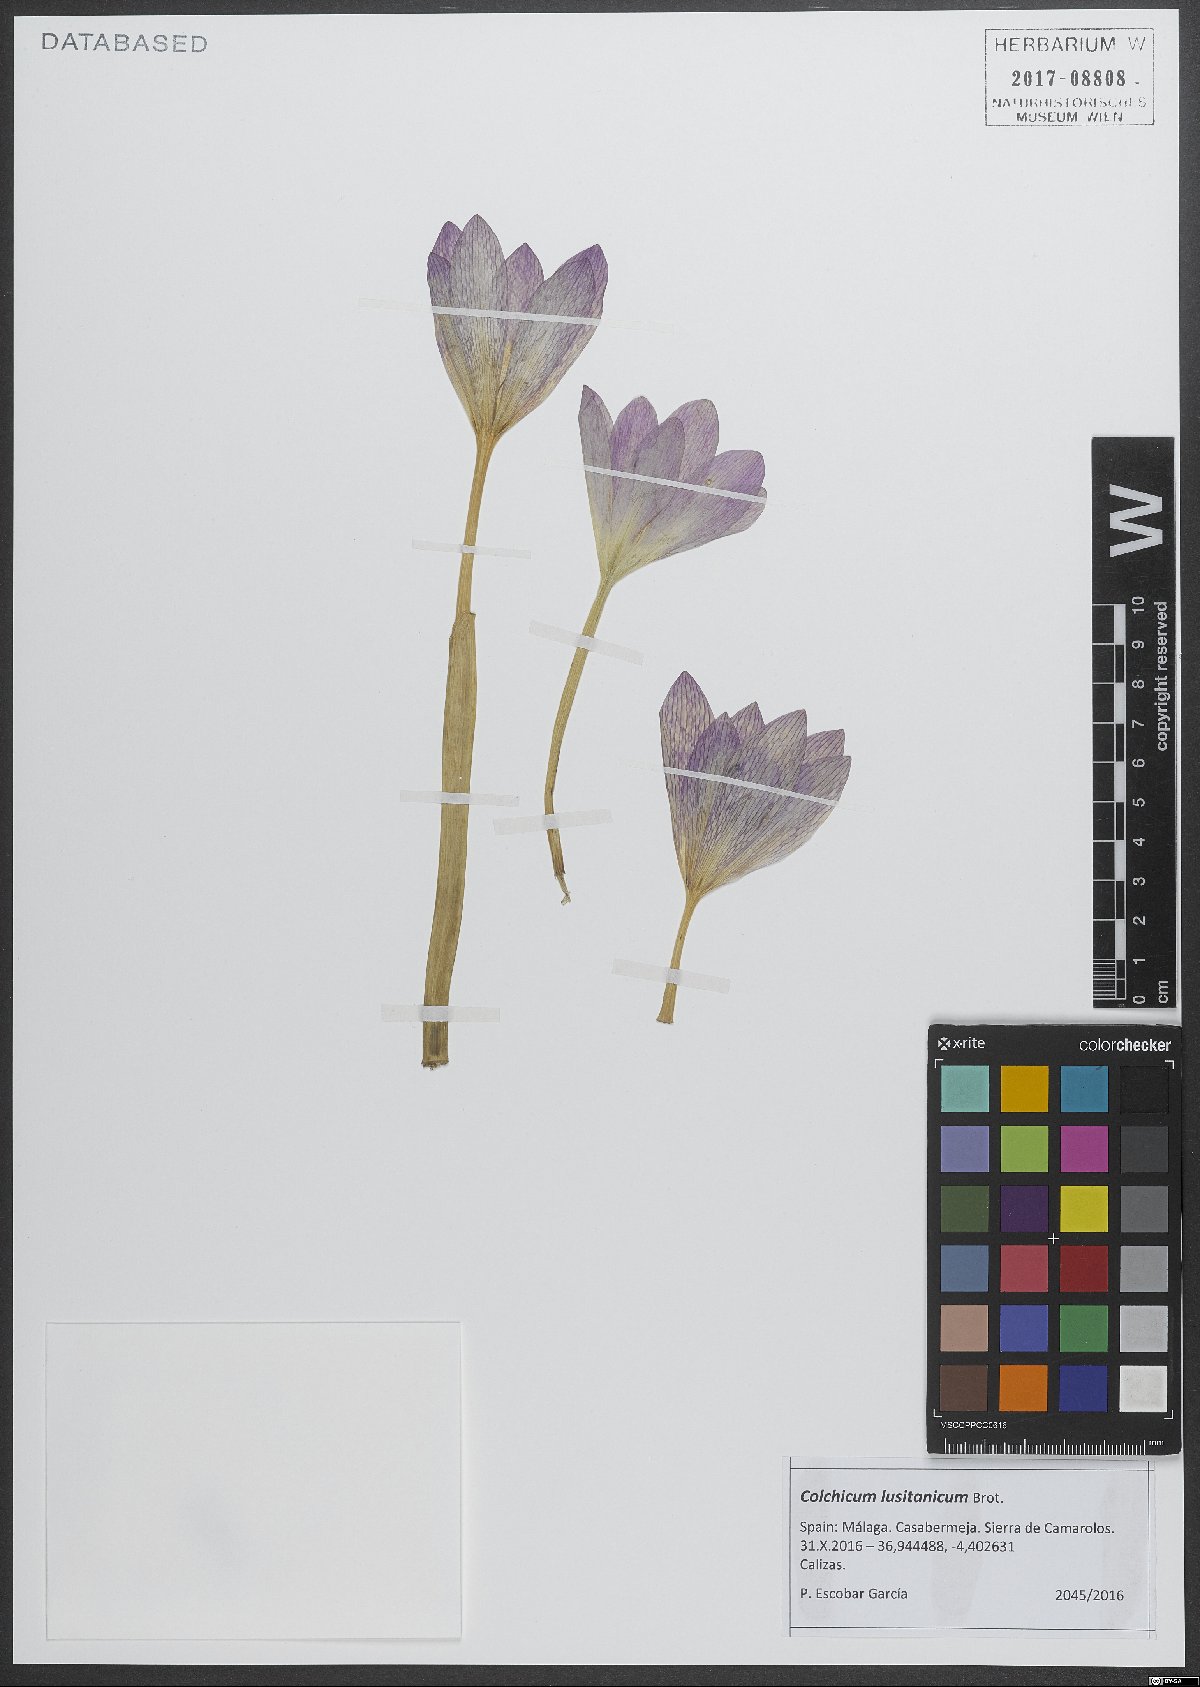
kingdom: Plantae
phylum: Tracheophyta
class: Liliopsida
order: Liliales
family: Colchicaceae
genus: Colchicum
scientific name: Colchicum lusitanum
